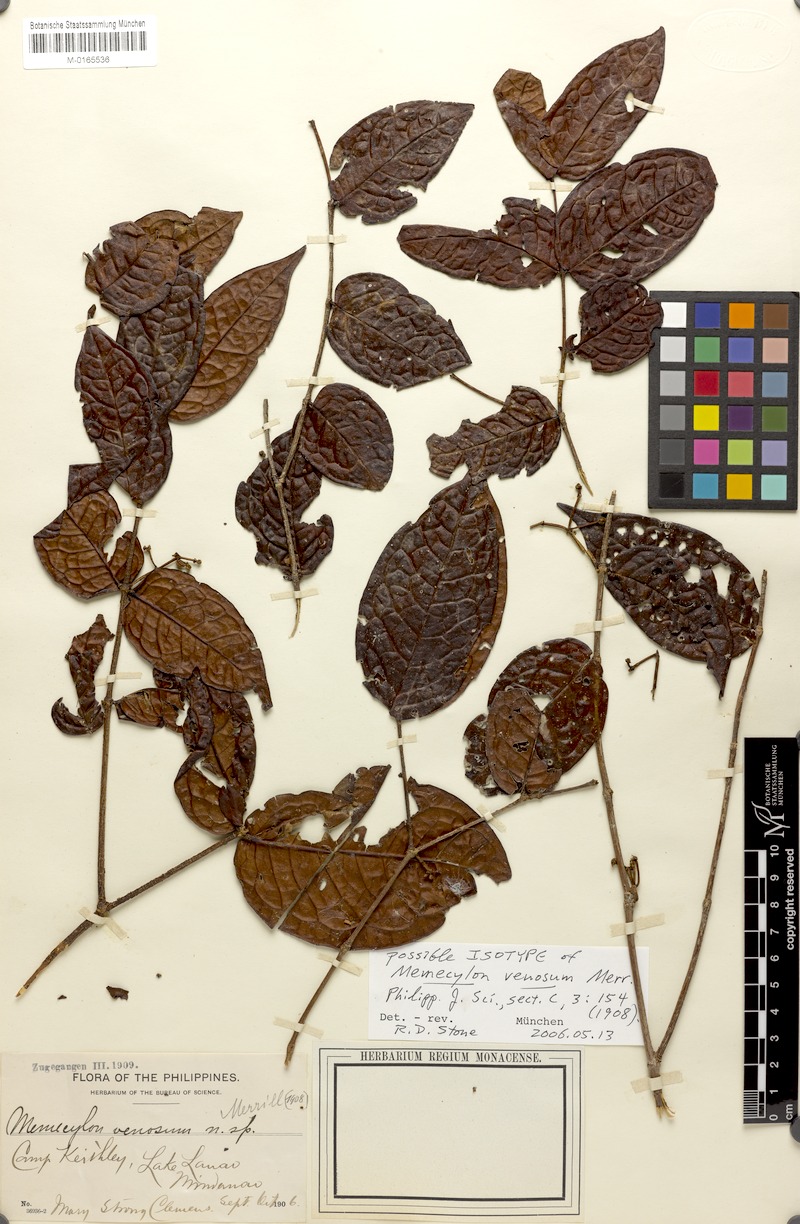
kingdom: Plantae
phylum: Tracheophyta
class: Magnoliopsida
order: Myrtales
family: Melastomataceae
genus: Memecylon
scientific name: Memecylon venosum
